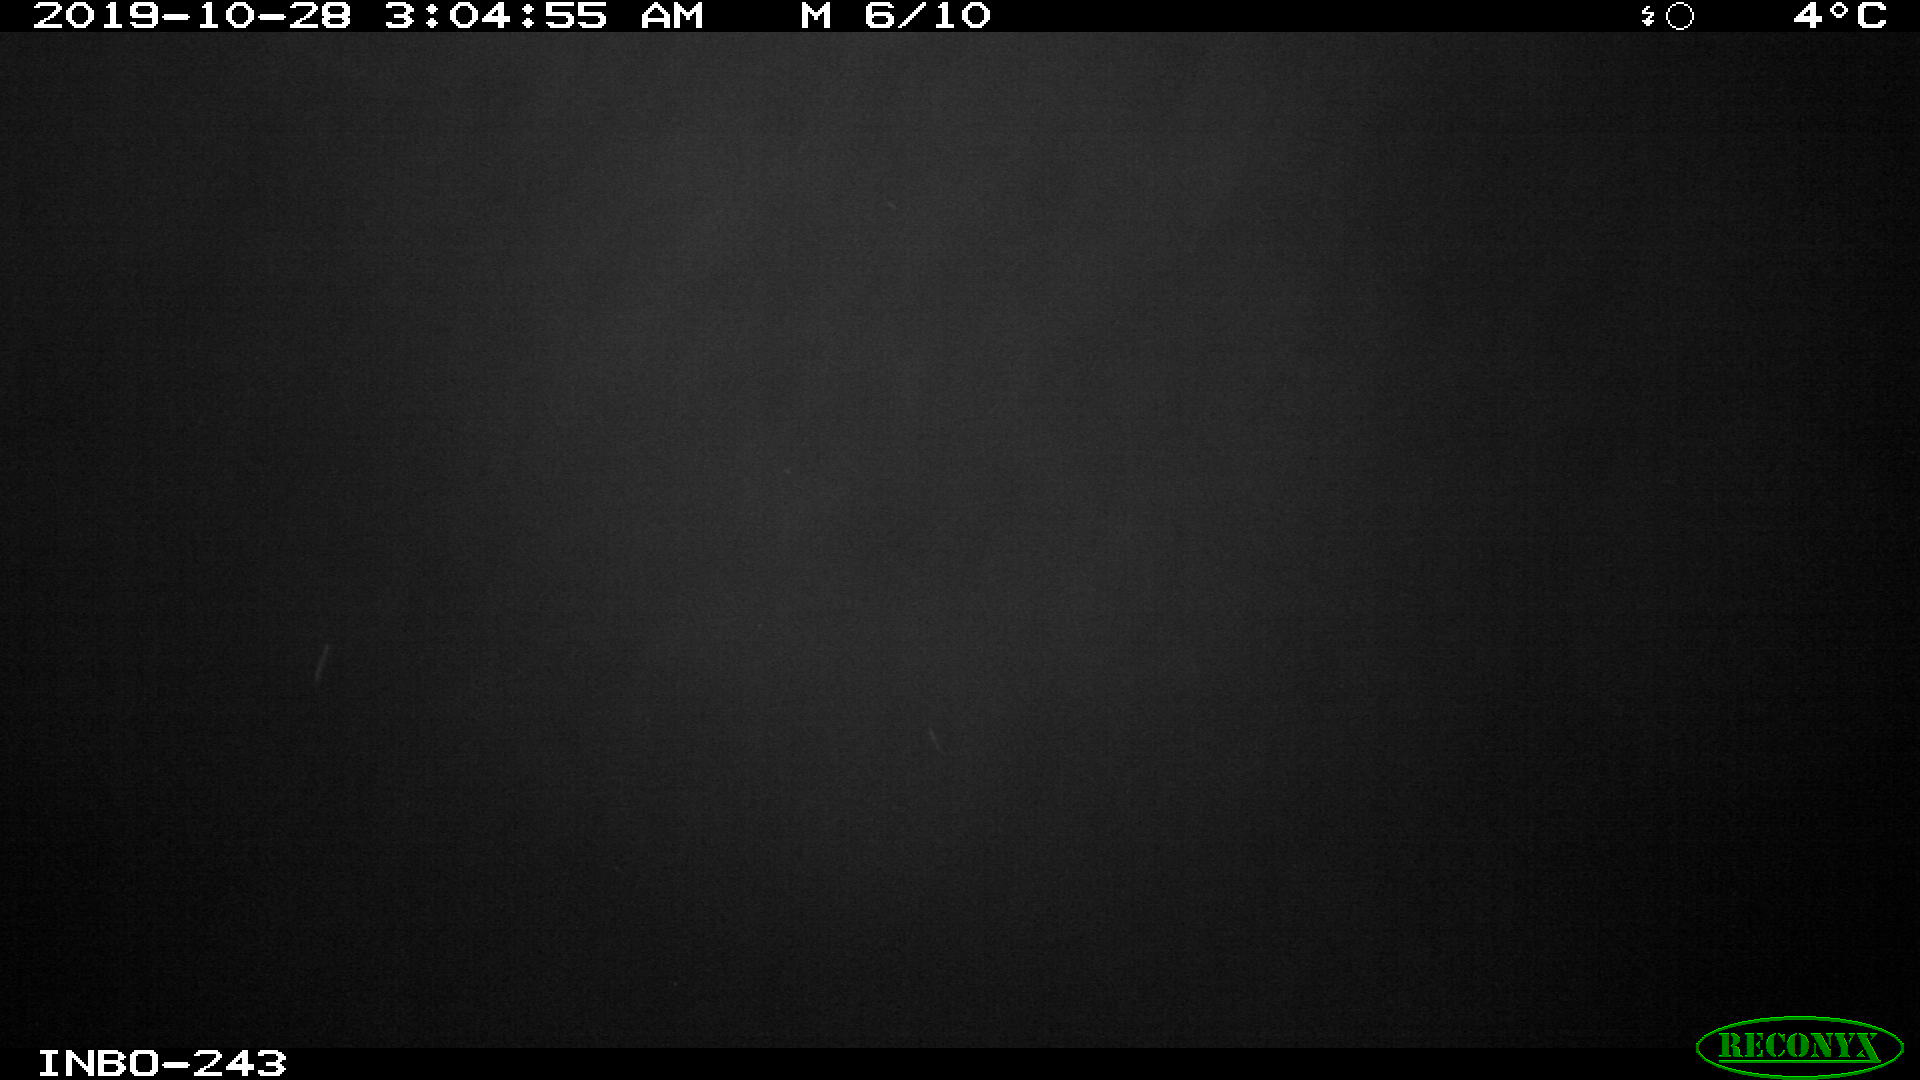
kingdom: Animalia
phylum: Chordata
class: Aves
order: Anseriformes
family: Anatidae
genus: Anas
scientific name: Anas platyrhynchos
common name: Mallard
